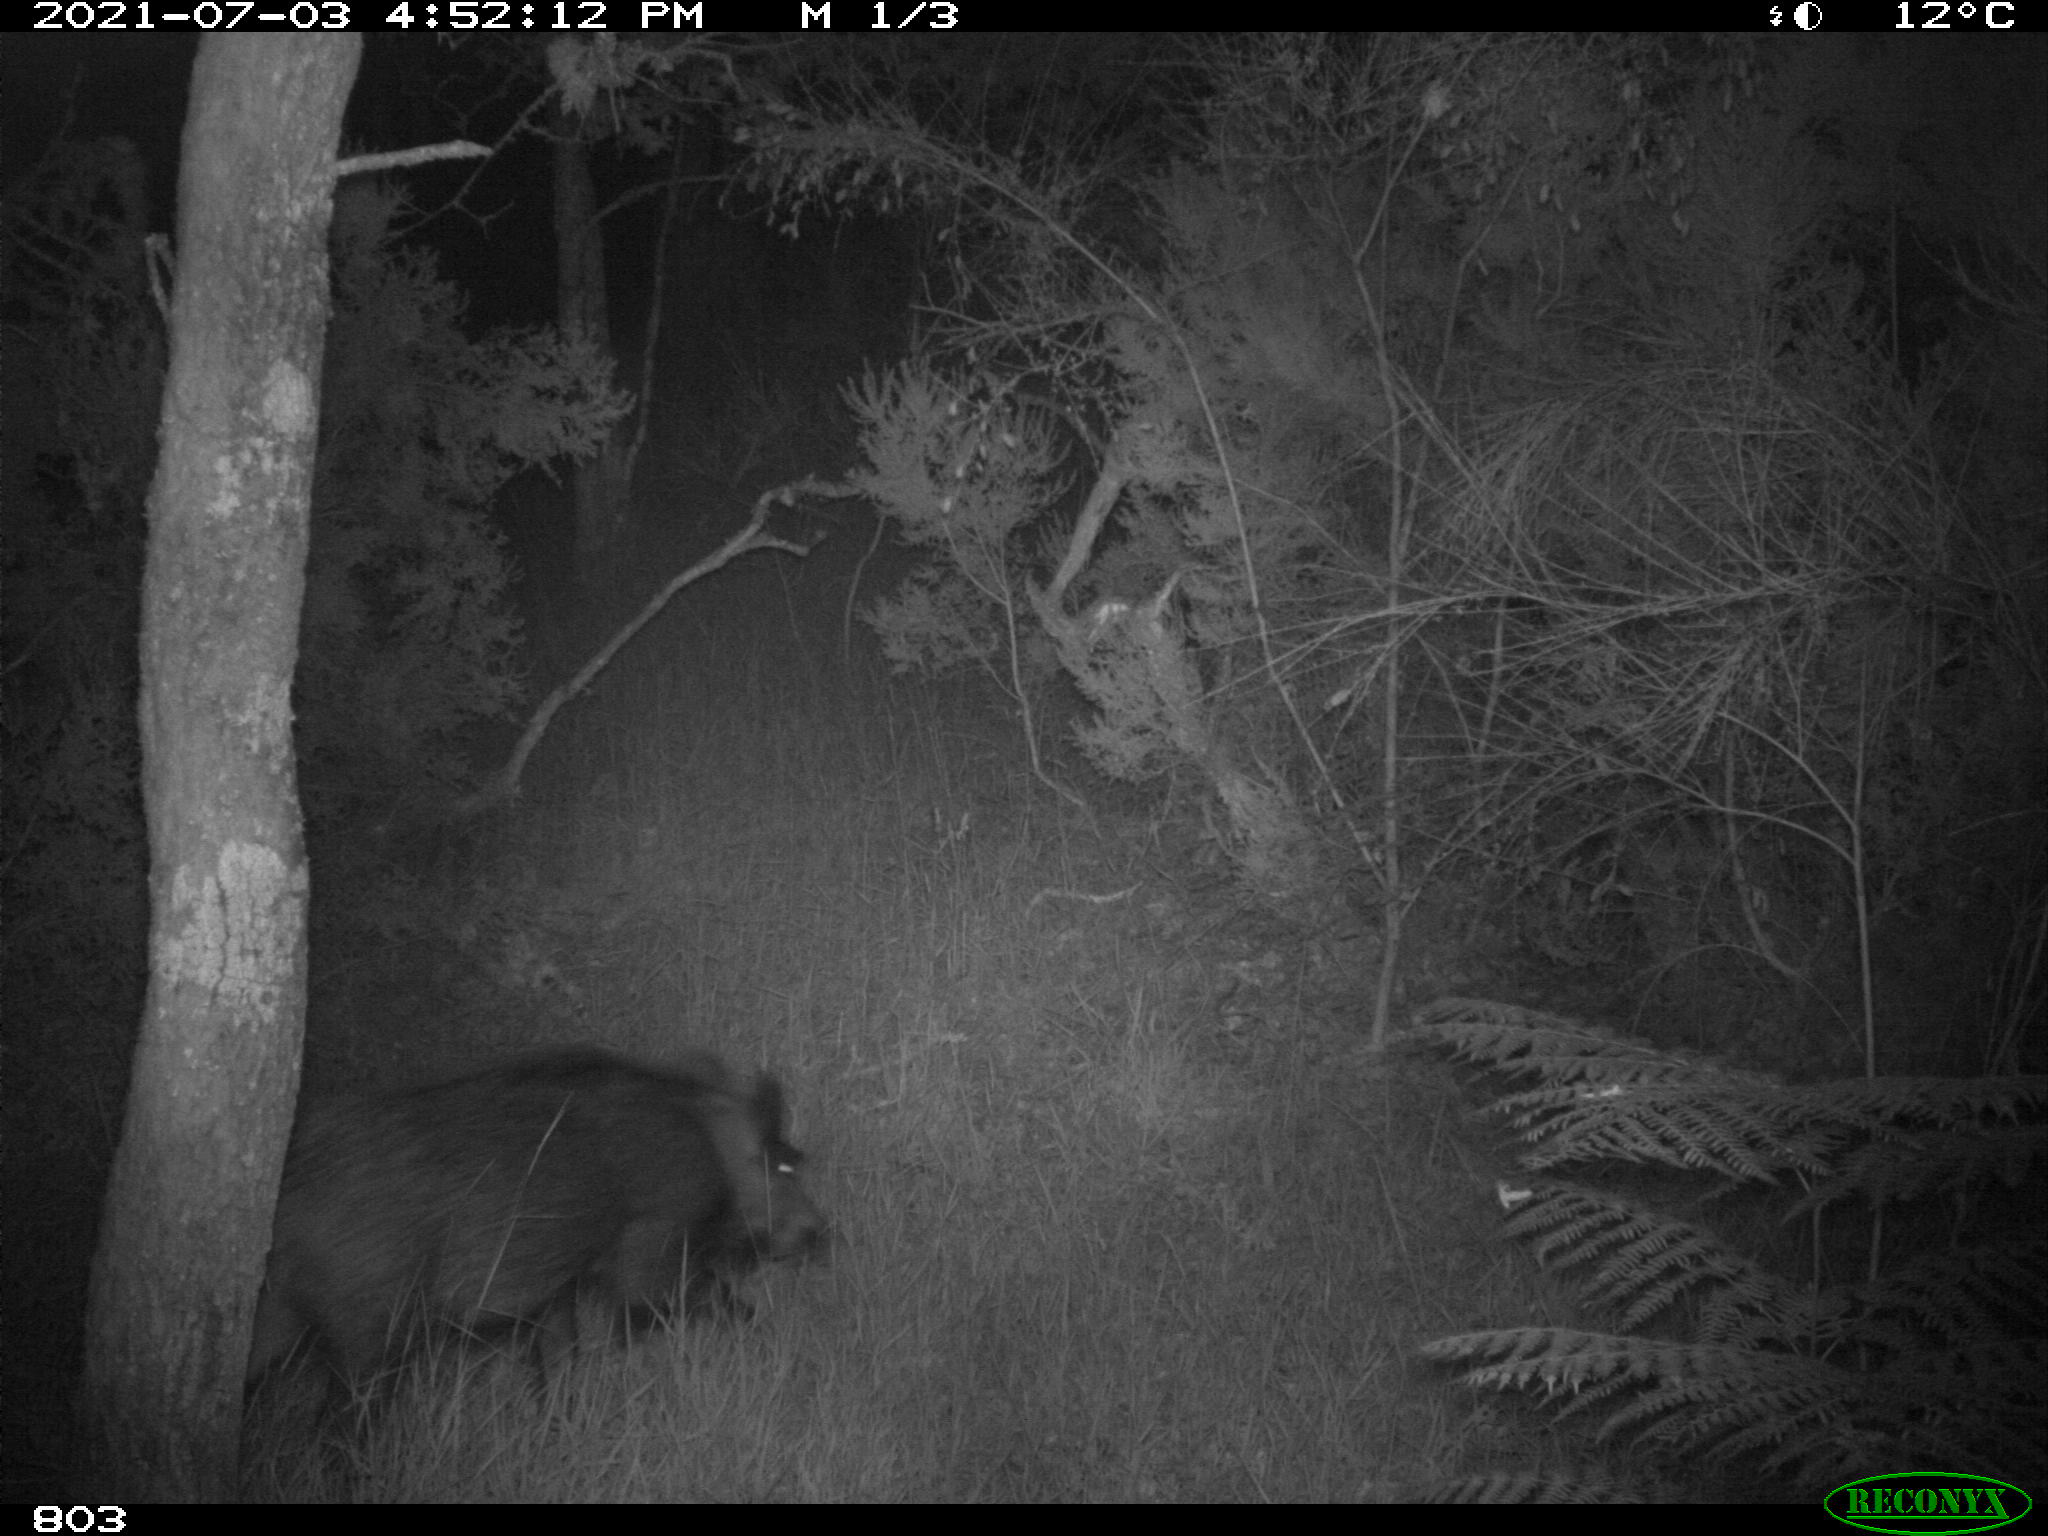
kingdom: Animalia
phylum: Chordata
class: Mammalia
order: Artiodactyla
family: Suidae
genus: Sus
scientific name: Sus scrofa
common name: Wild boar
